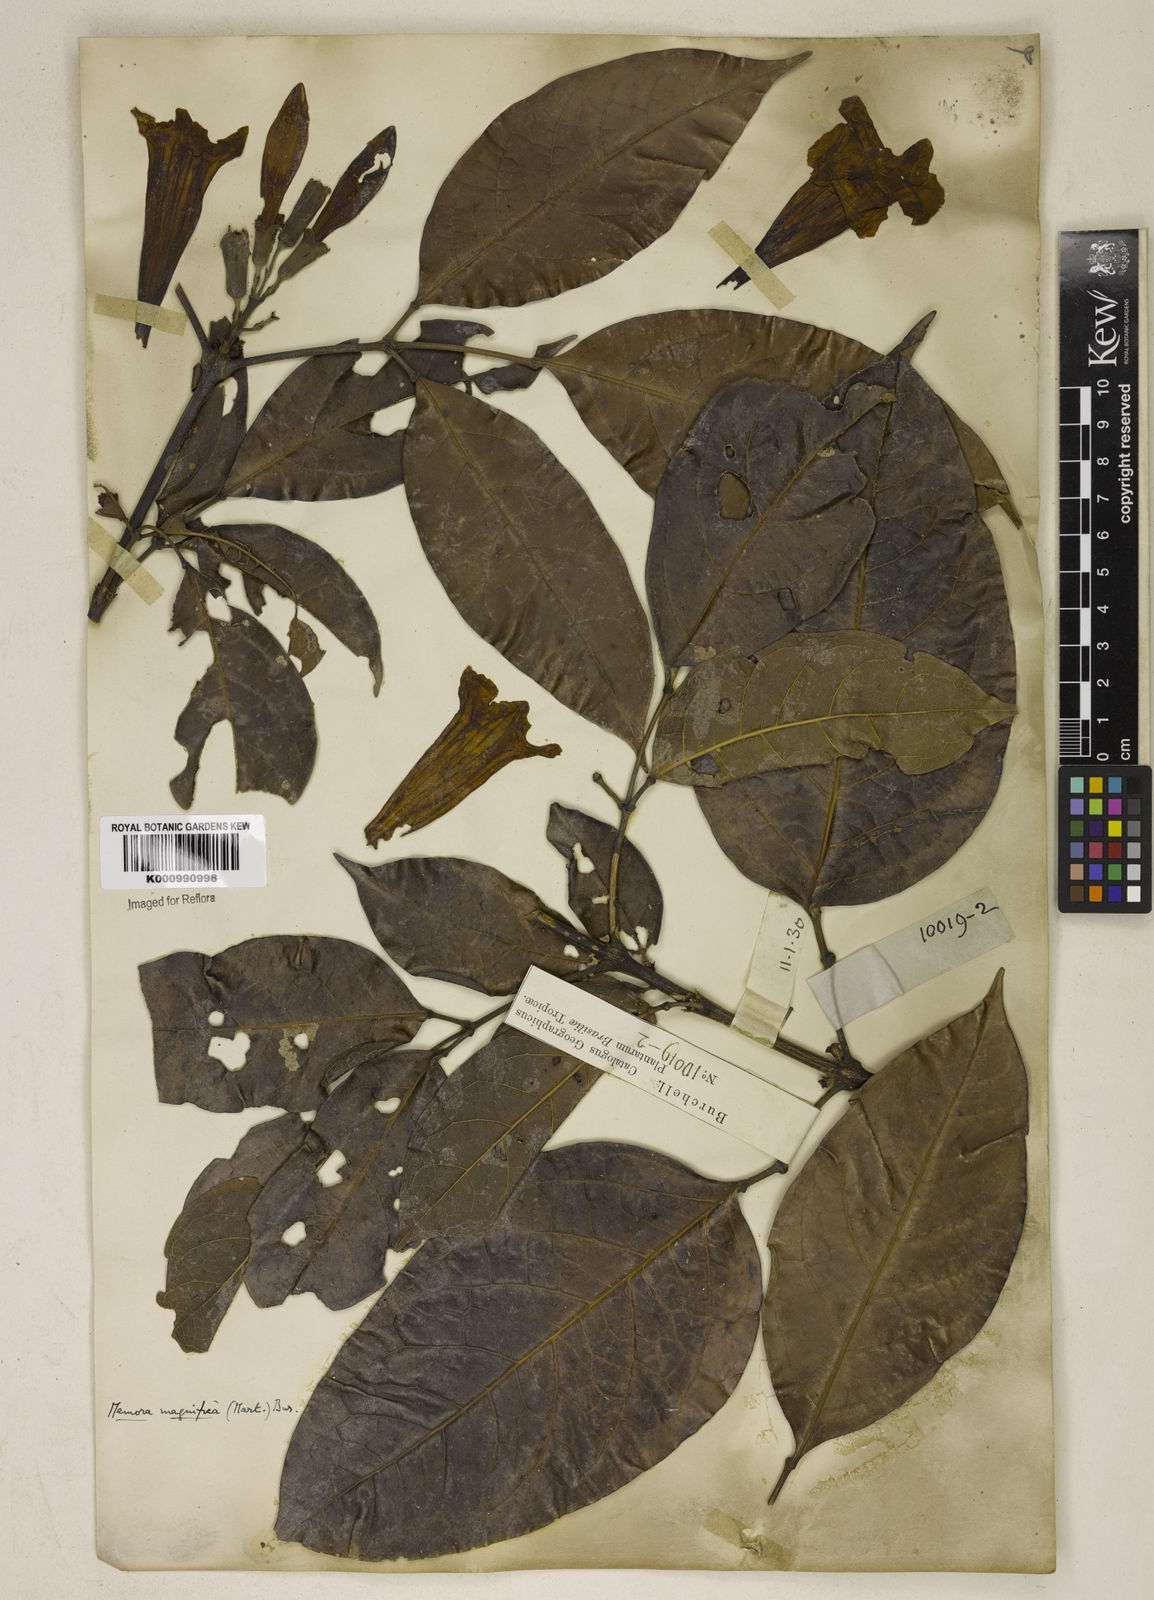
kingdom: Plantae
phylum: Tracheophyta
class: Magnoliopsida
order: Lamiales
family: Bignoniaceae
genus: Adenocalymma
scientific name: Adenocalymma magnificum
